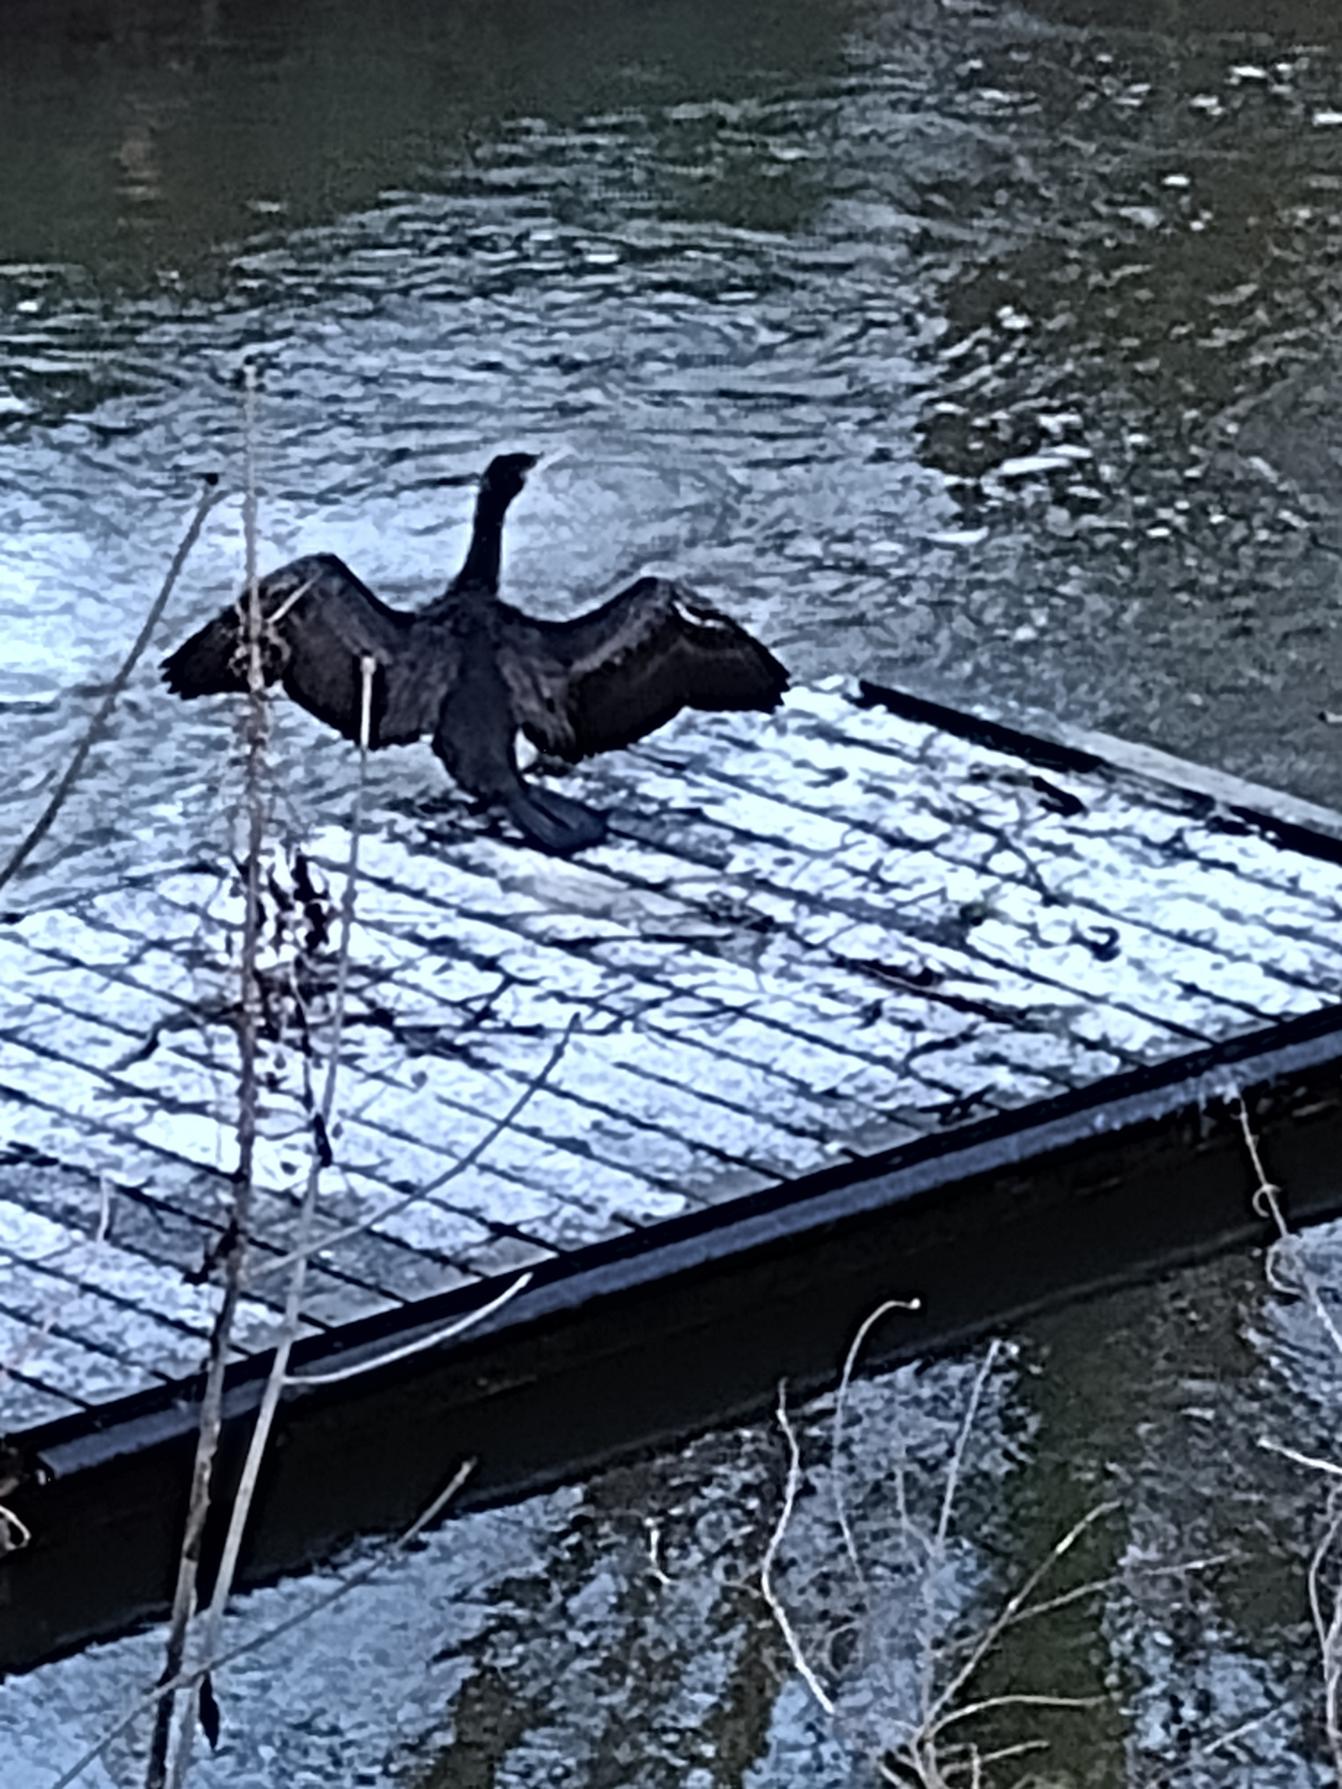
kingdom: Animalia
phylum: Chordata
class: Aves
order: Suliformes
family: Phalacrocoracidae
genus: Phalacrocorax
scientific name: Phalacrocorax carbo
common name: Skarv
